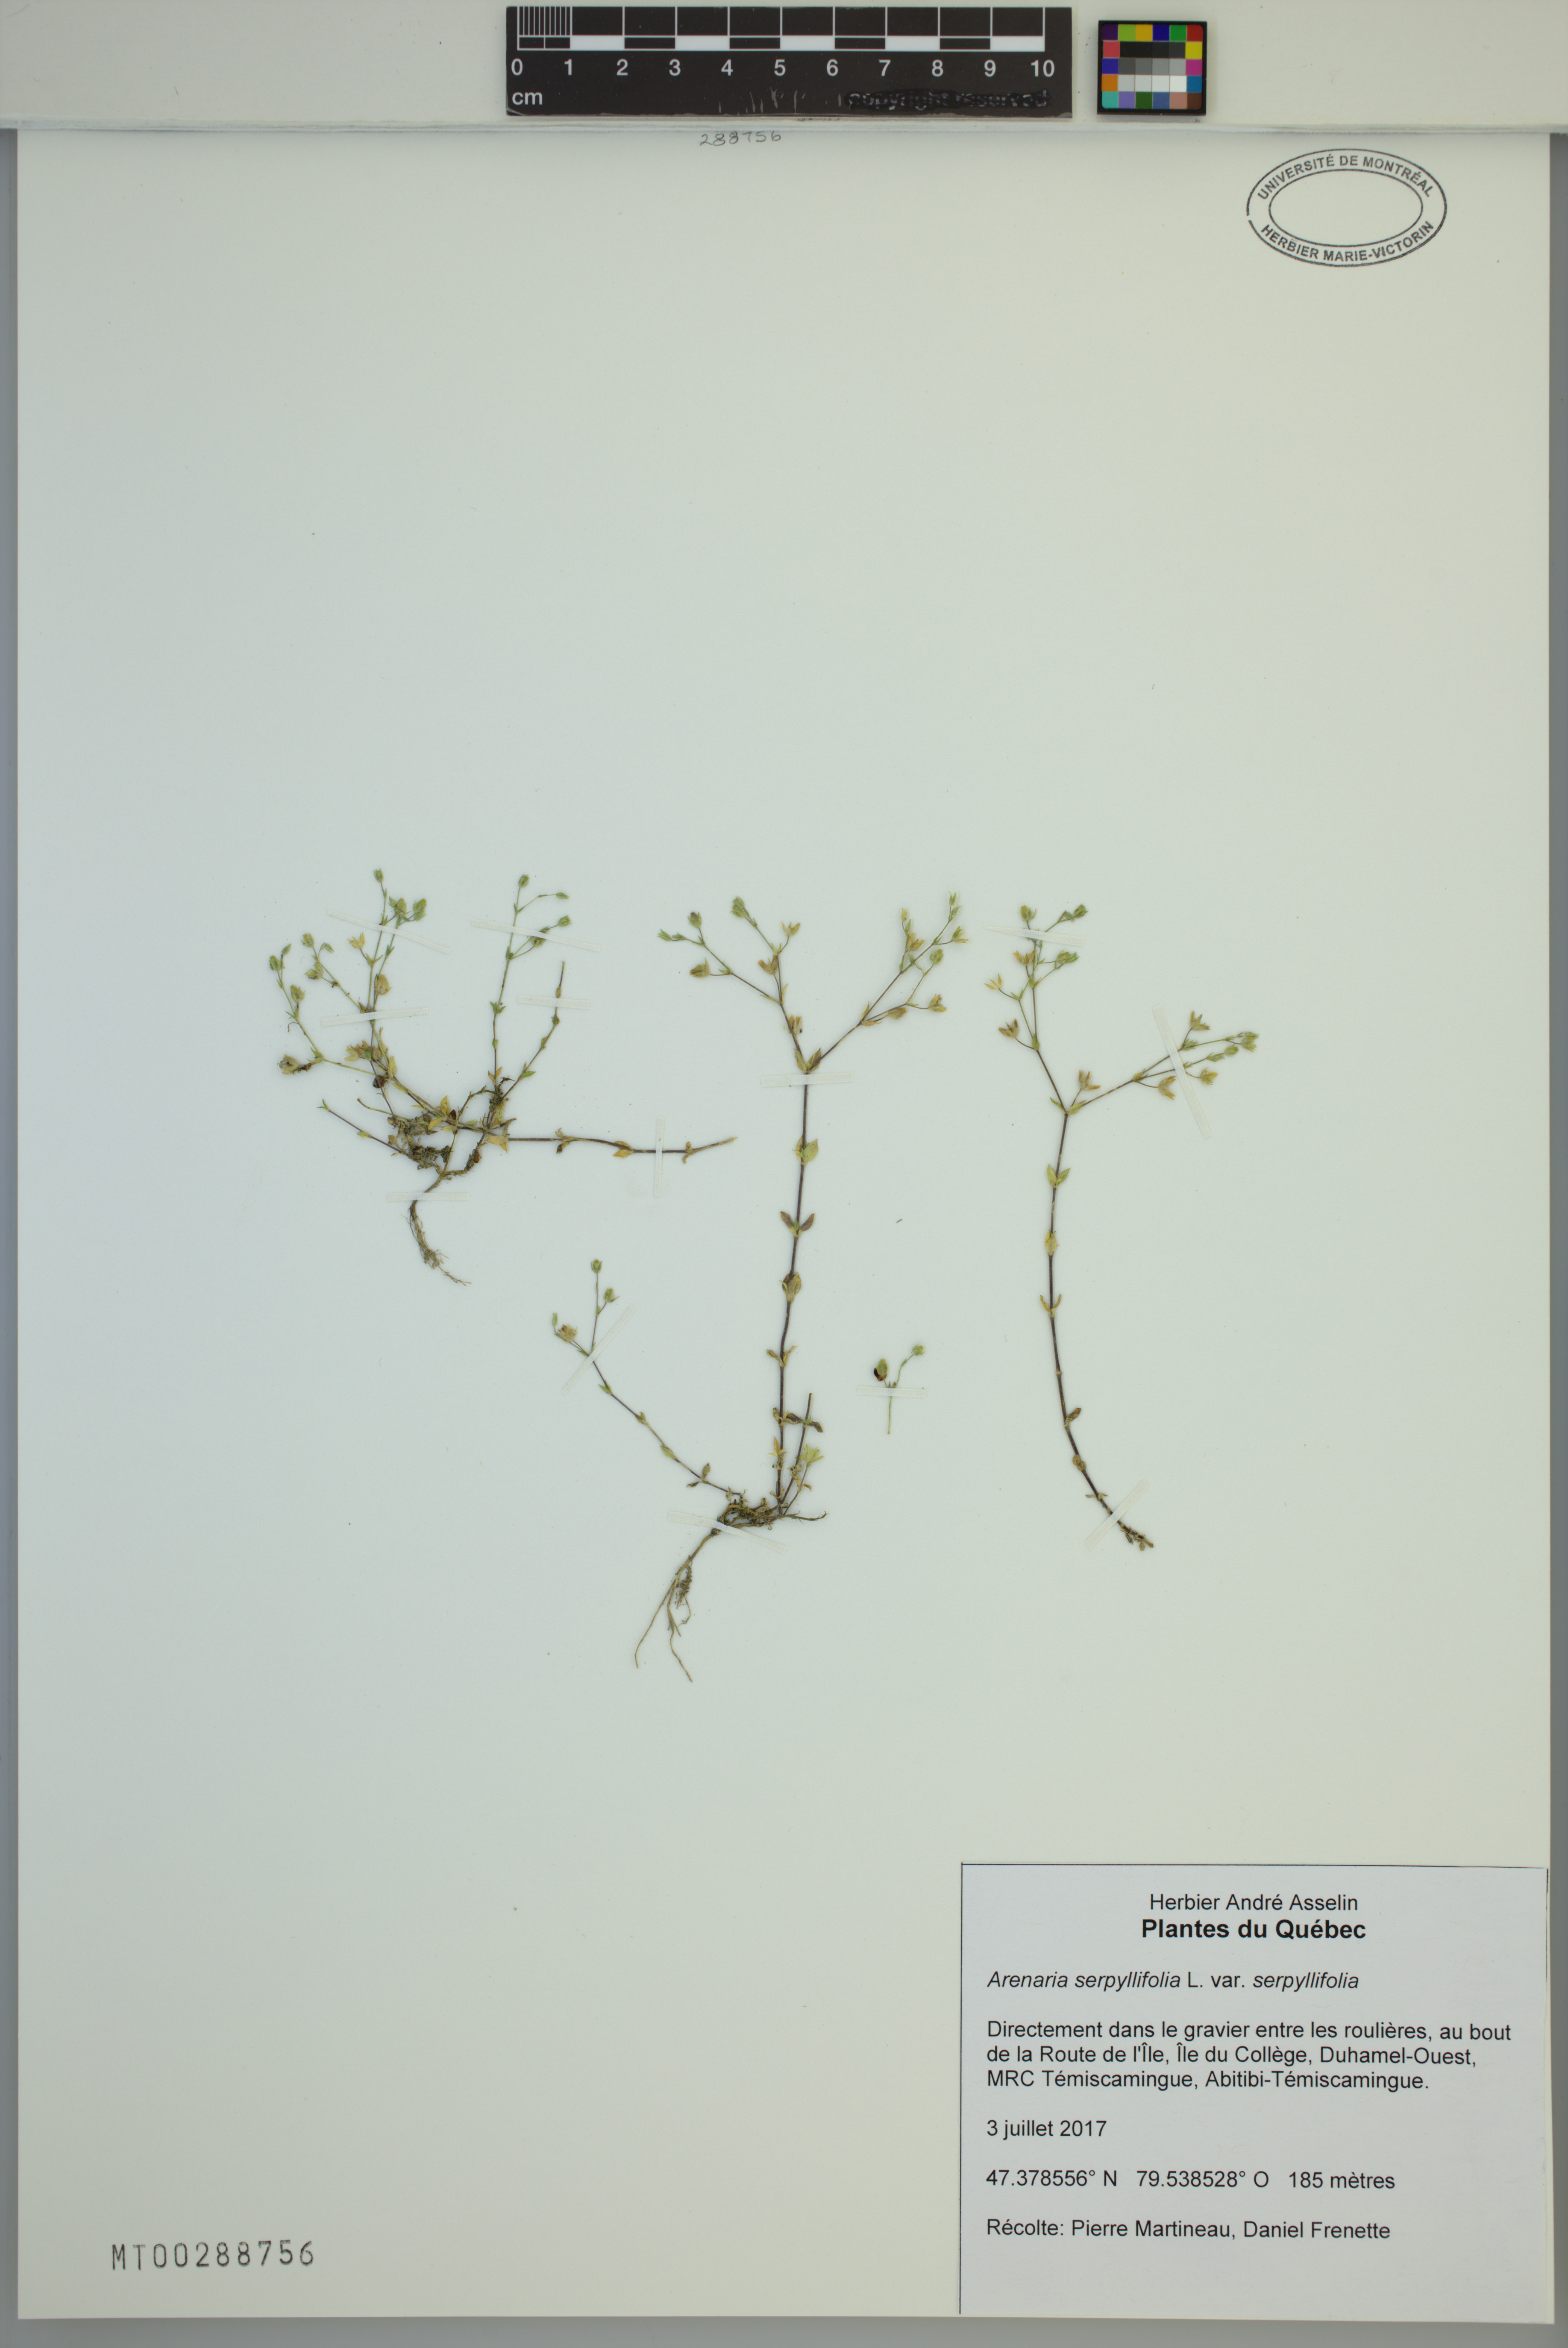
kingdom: Plantae
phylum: Tracheophyta
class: Magnoliopsida
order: Caryophyllales
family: Caryophyllaceae
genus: Arenaria
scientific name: Arenaria serpyllifolia
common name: Thyme-leaved sandwort
